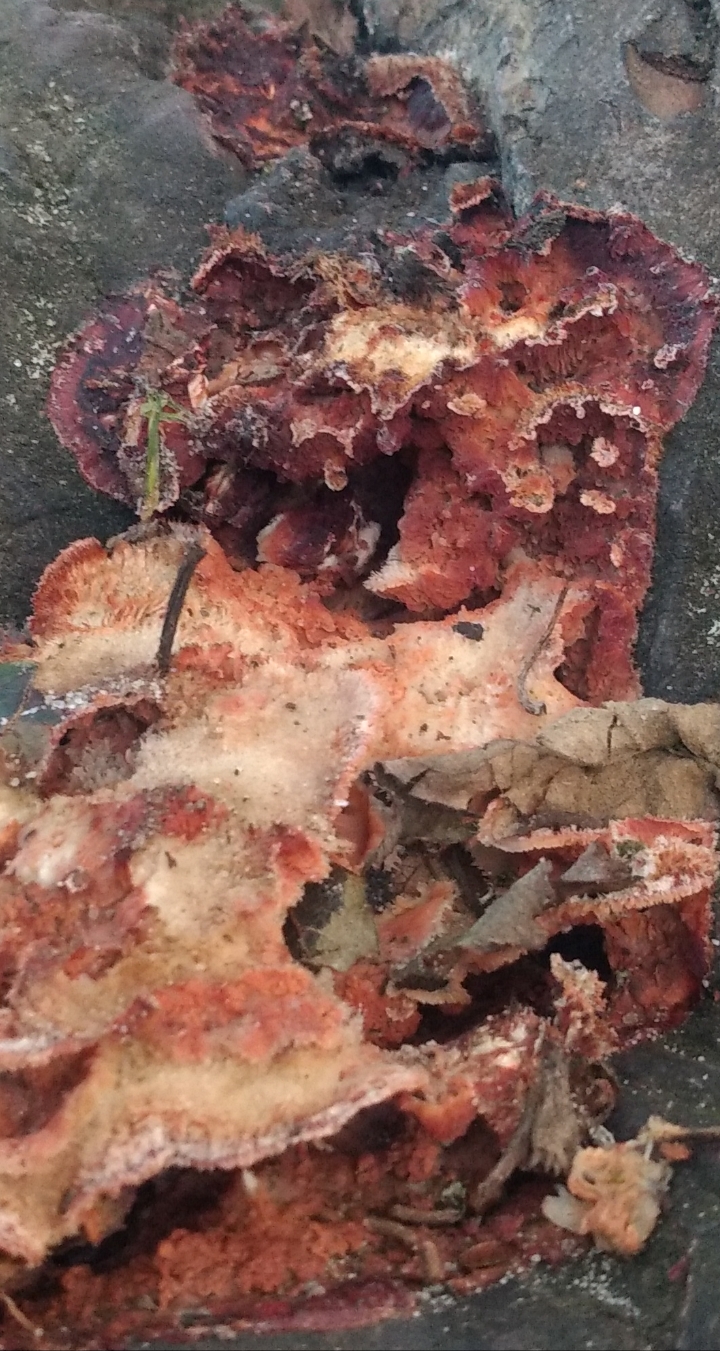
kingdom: Fungi
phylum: Basidiomycota
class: Agaricomycetes
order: Polyporales
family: Meruliaceae
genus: Phlebia
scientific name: Phlebia tremellosa
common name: bævrende åresvamp
